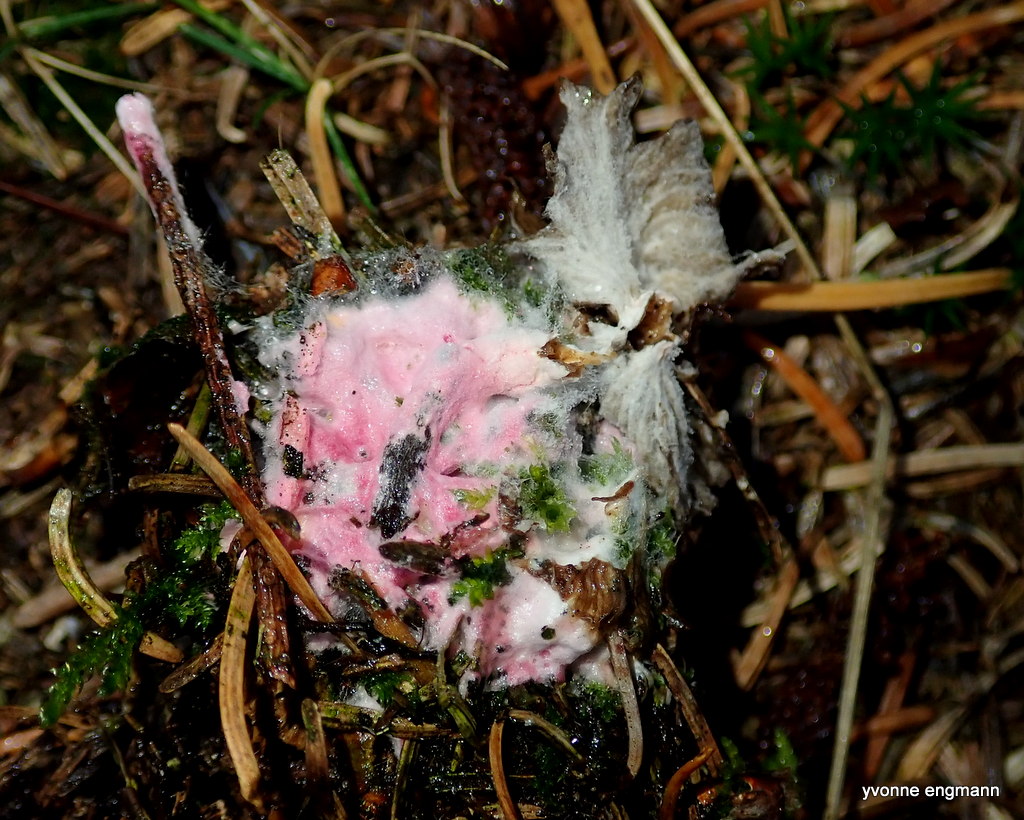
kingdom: Fungi
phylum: Ascomycota
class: Sordariomycetes
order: Hypocreales
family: Hypocreaceae
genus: Hypomyces
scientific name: Hypomyces rosellus
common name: rosa snylteskorpe
